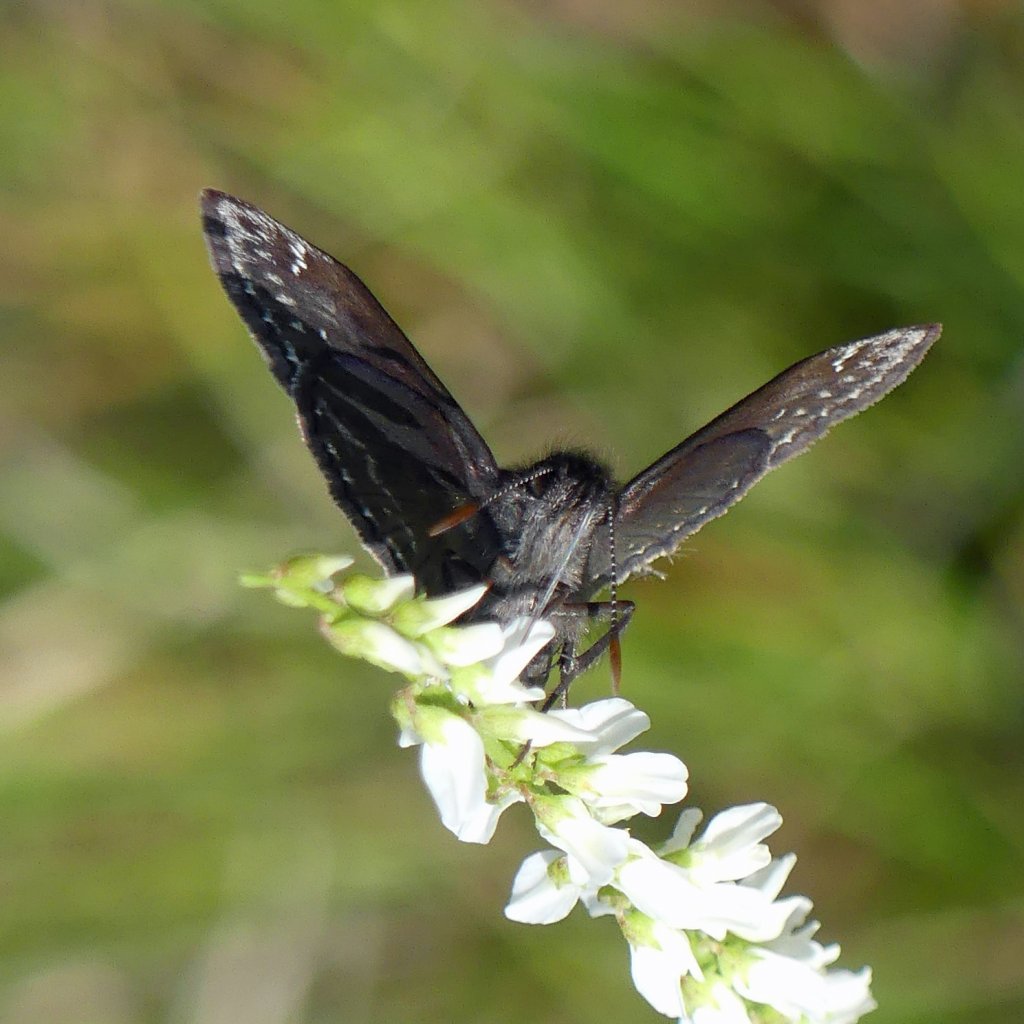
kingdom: Animalia
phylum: Arthropoda
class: Insecta
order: Lepidoptera
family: Hesperiidae
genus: Erynnis
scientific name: Erynnis
